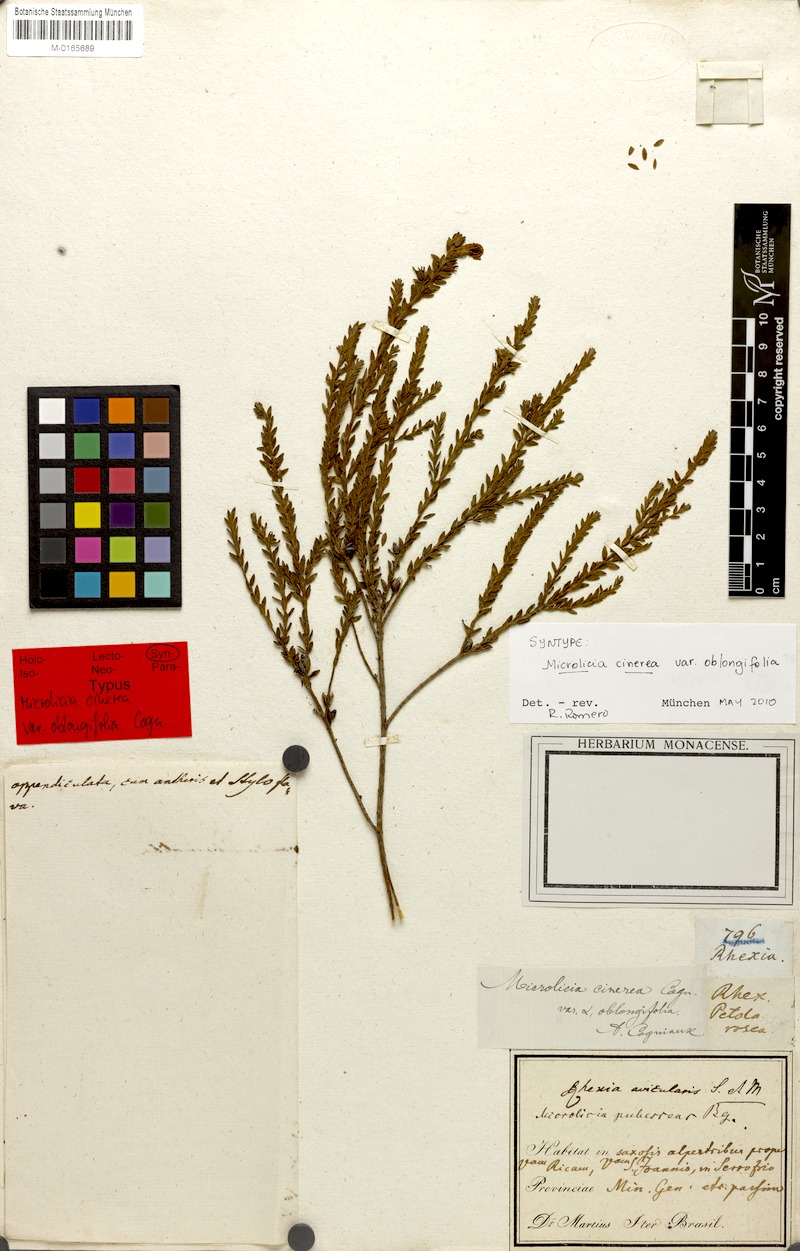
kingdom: Plantae
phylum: Tracheophyta
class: Magnoliopsida
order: Myrtales
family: Melastomataceae
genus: Microlicia
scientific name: Microlicia fasciculata
